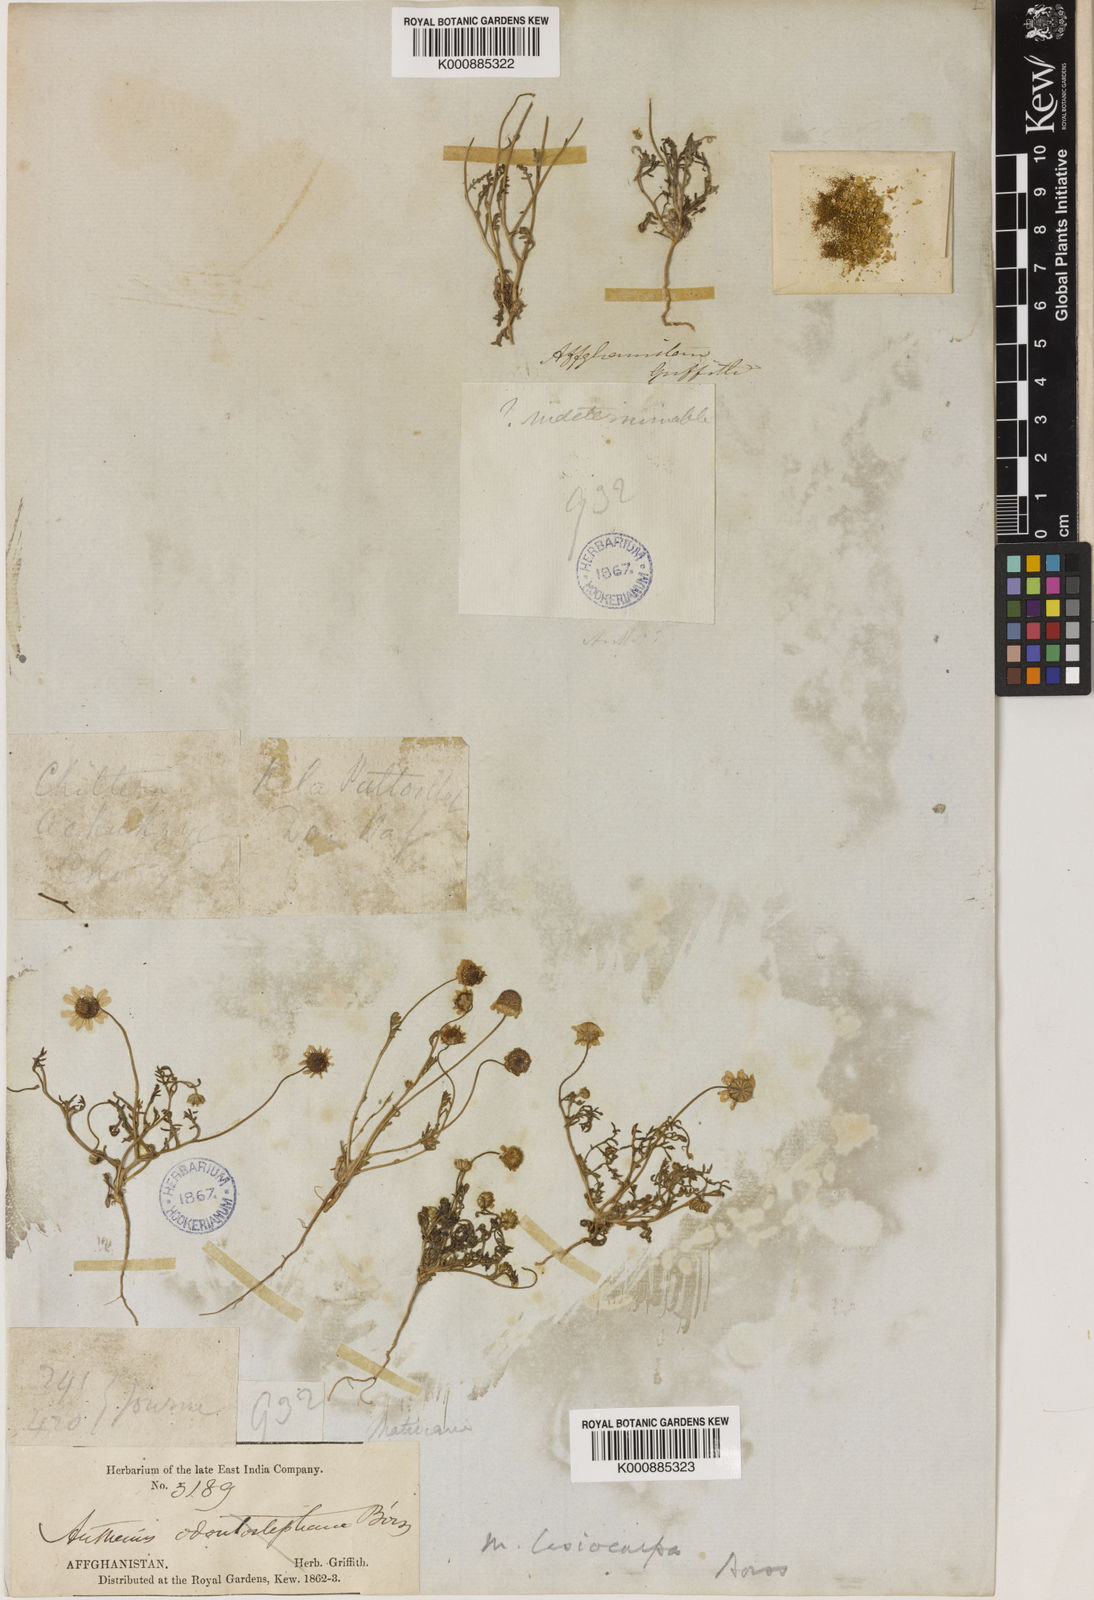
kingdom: Plantae
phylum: Tracheophyta
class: Magnoliopsida
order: Asterales
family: Asteraceae
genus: Microcephala
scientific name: Microcephala lamellata
